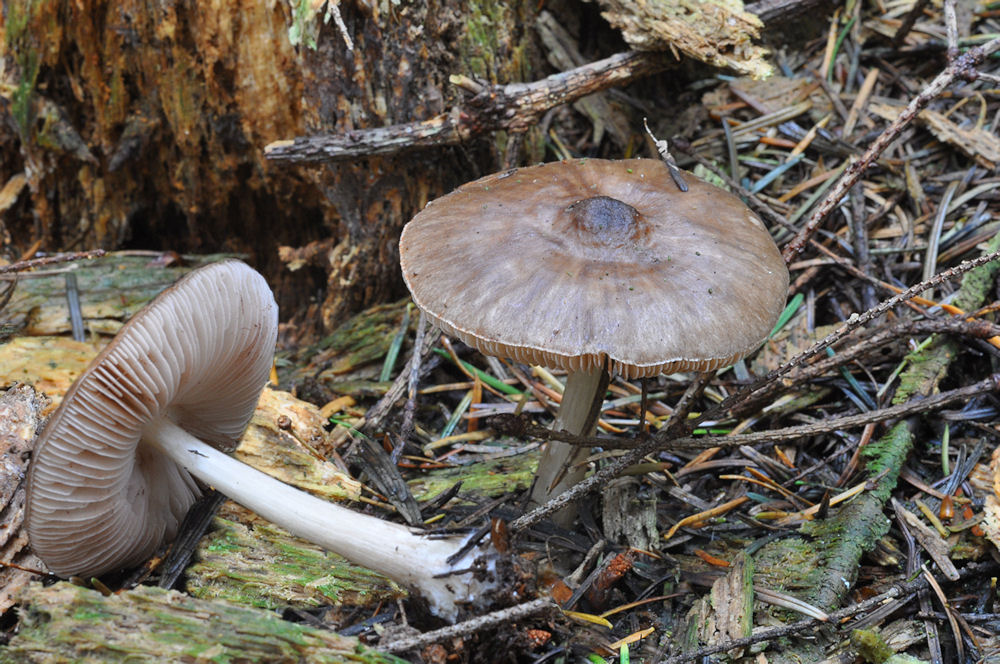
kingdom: Fungi
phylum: Basidiomycota
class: Agaricomycetes
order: Agaricales
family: Pluteaceae
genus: Pluteus
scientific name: Pluteus cervinus
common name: sodfarvet skærmhat
